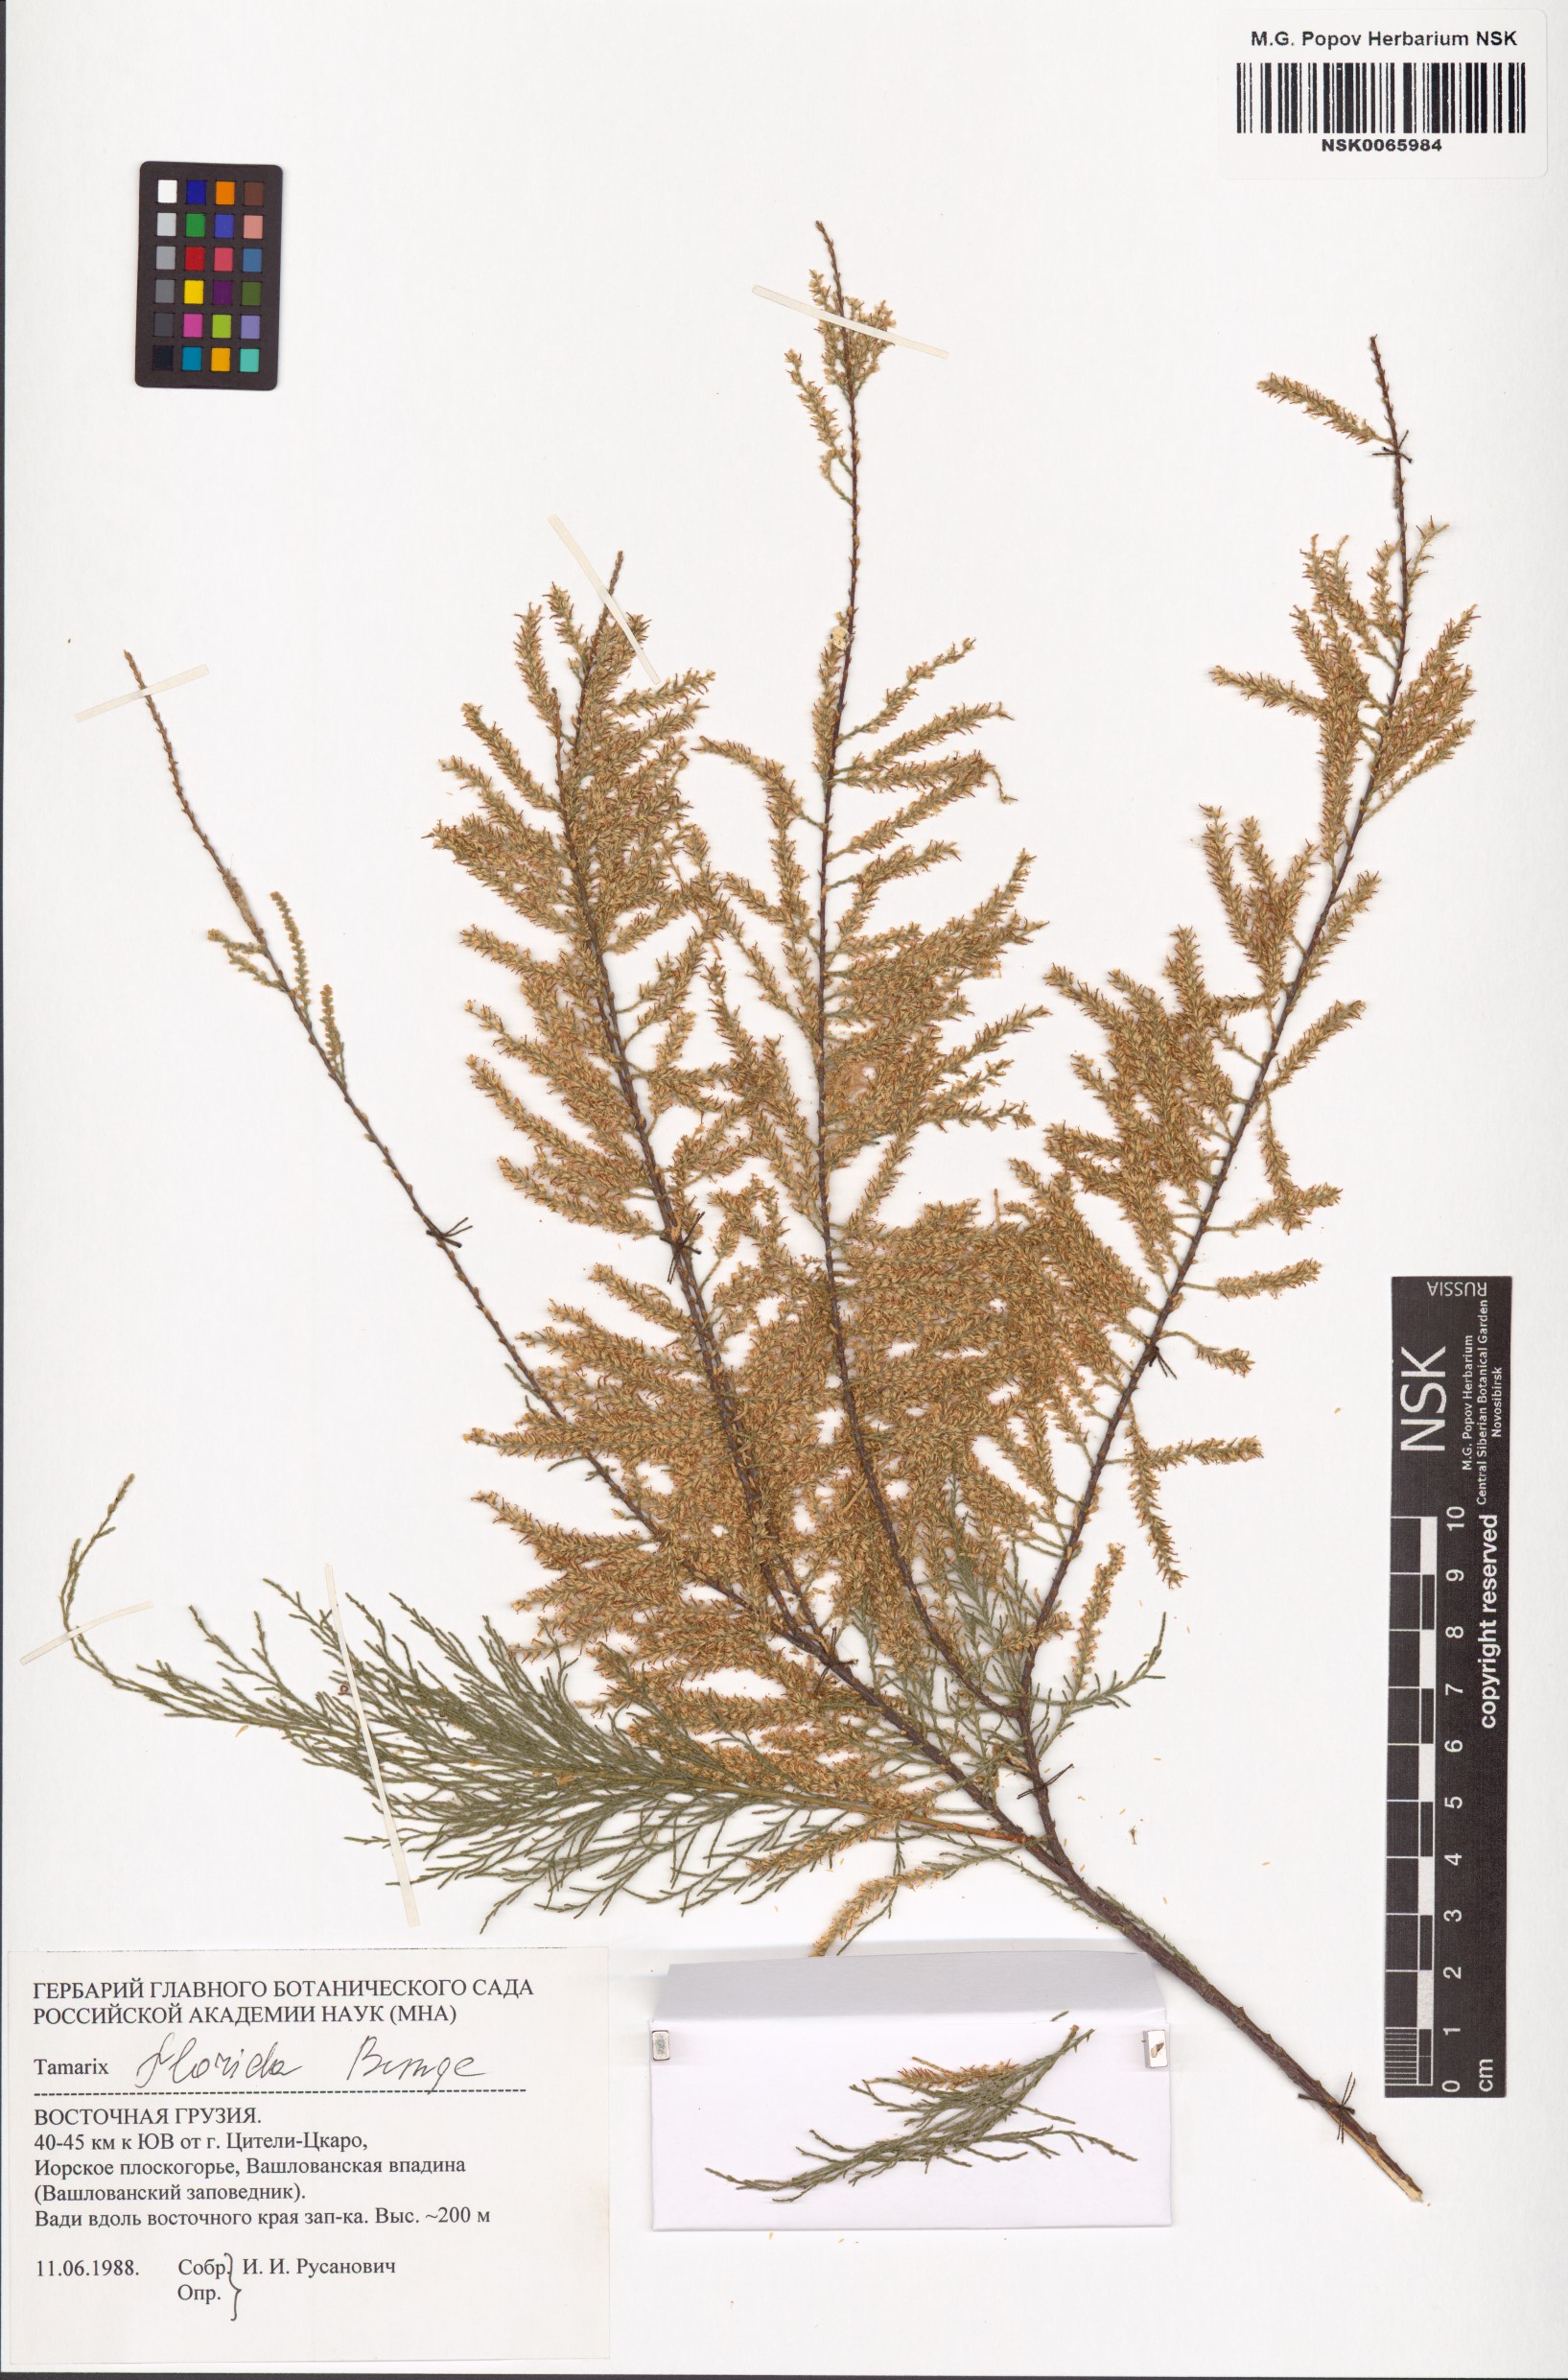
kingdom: Plantae
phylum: Tracheophyta
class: Magnoliopsida
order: Caryophyllales
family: Tamaricaceae
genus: Tamarix
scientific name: Tamarix florida
